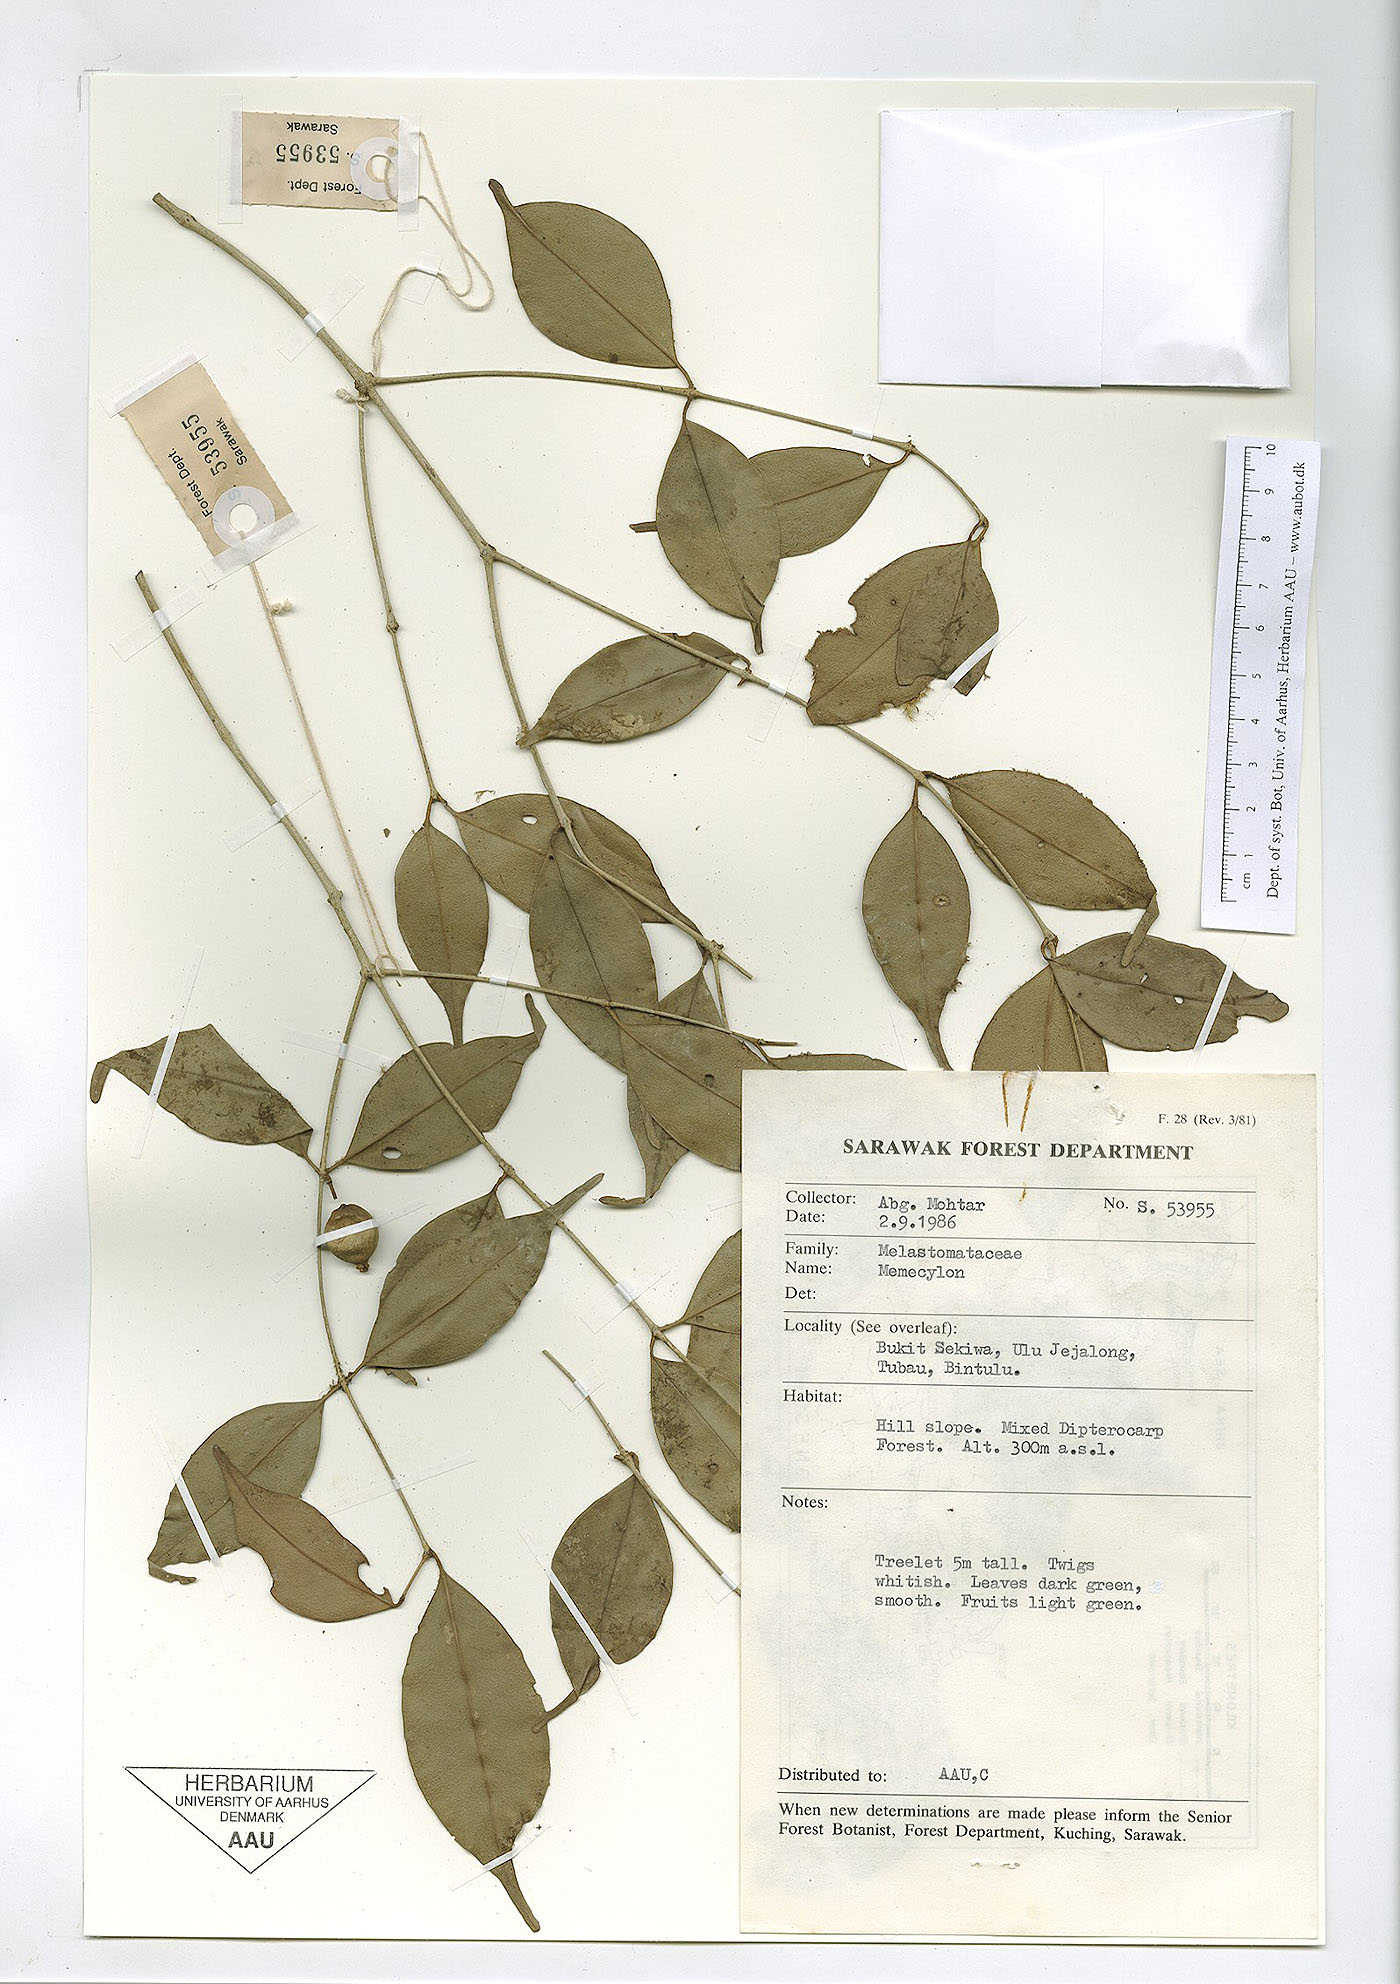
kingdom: Plantae
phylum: Tracheophyta
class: Magnoliopsida
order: Myrtales
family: Melastomataceae
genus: Memecylon
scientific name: Memecylon
